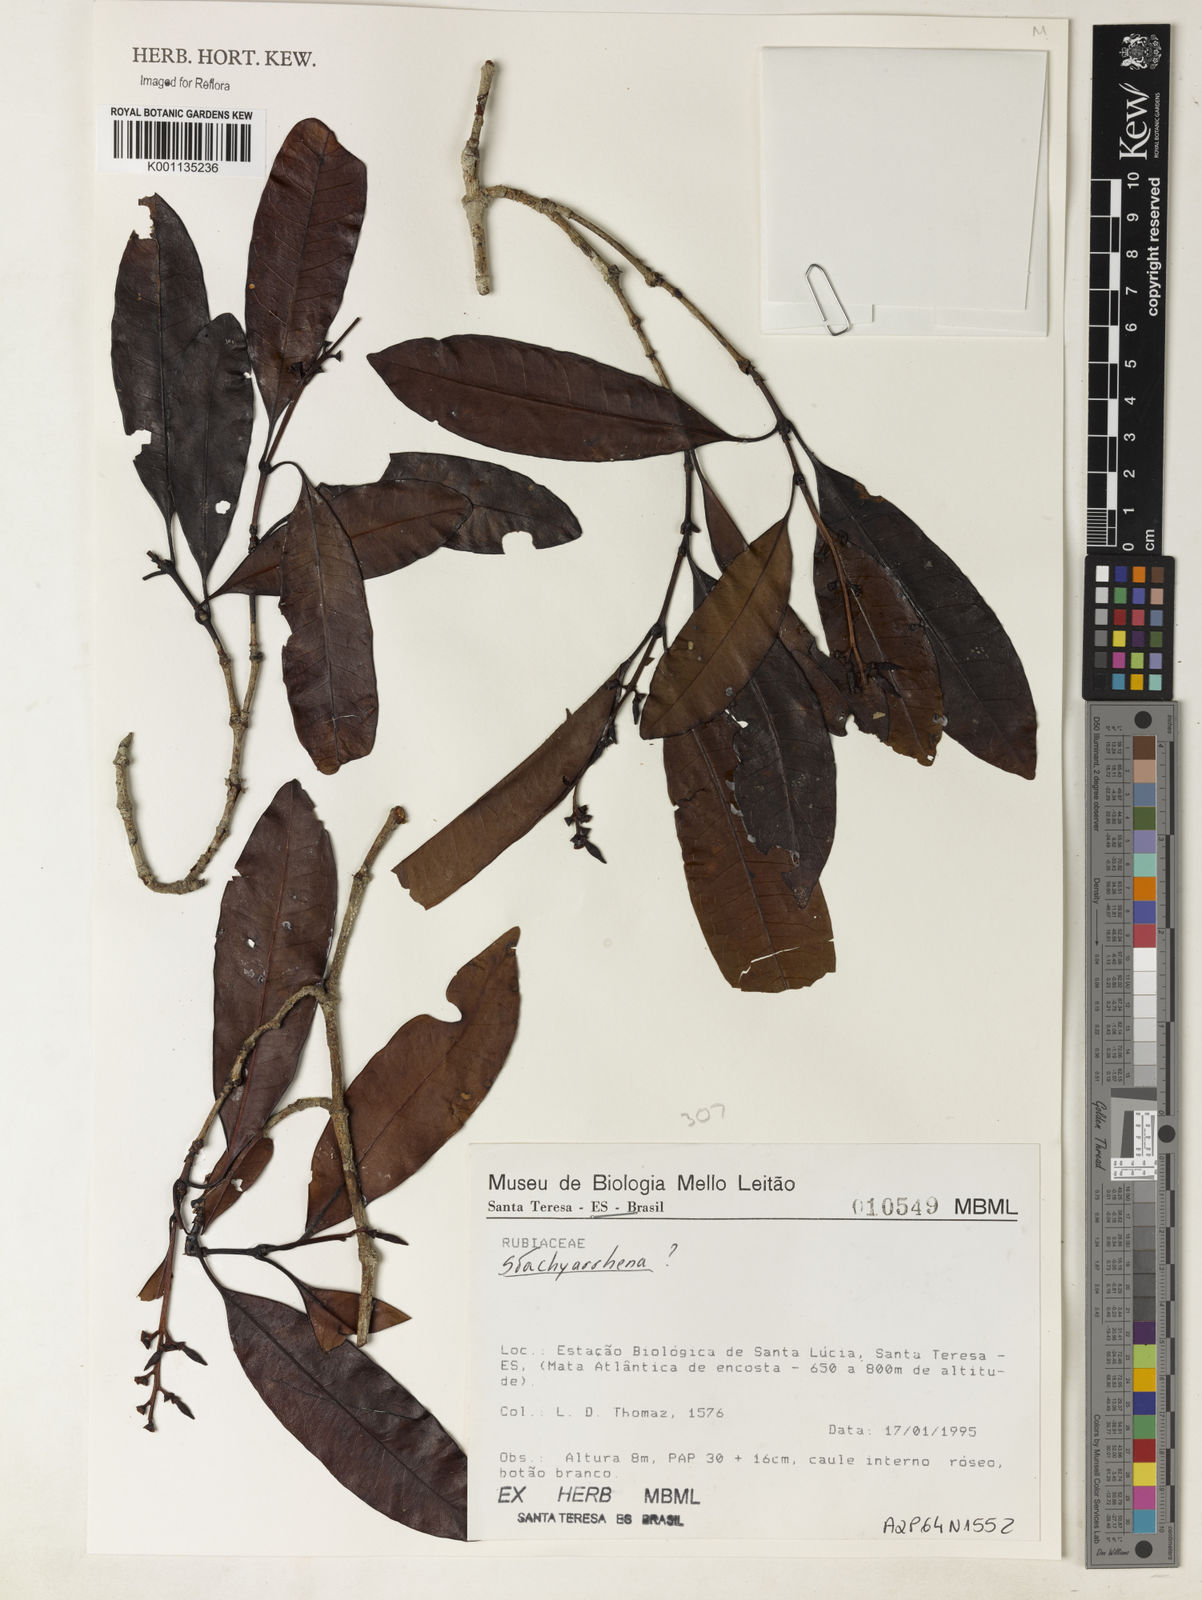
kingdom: Plantae
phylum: Tracheophyta
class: Magnoliopsida
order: Gentianales
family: Rubiaceae
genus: Stachyarrhena
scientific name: Stachyarrhena
